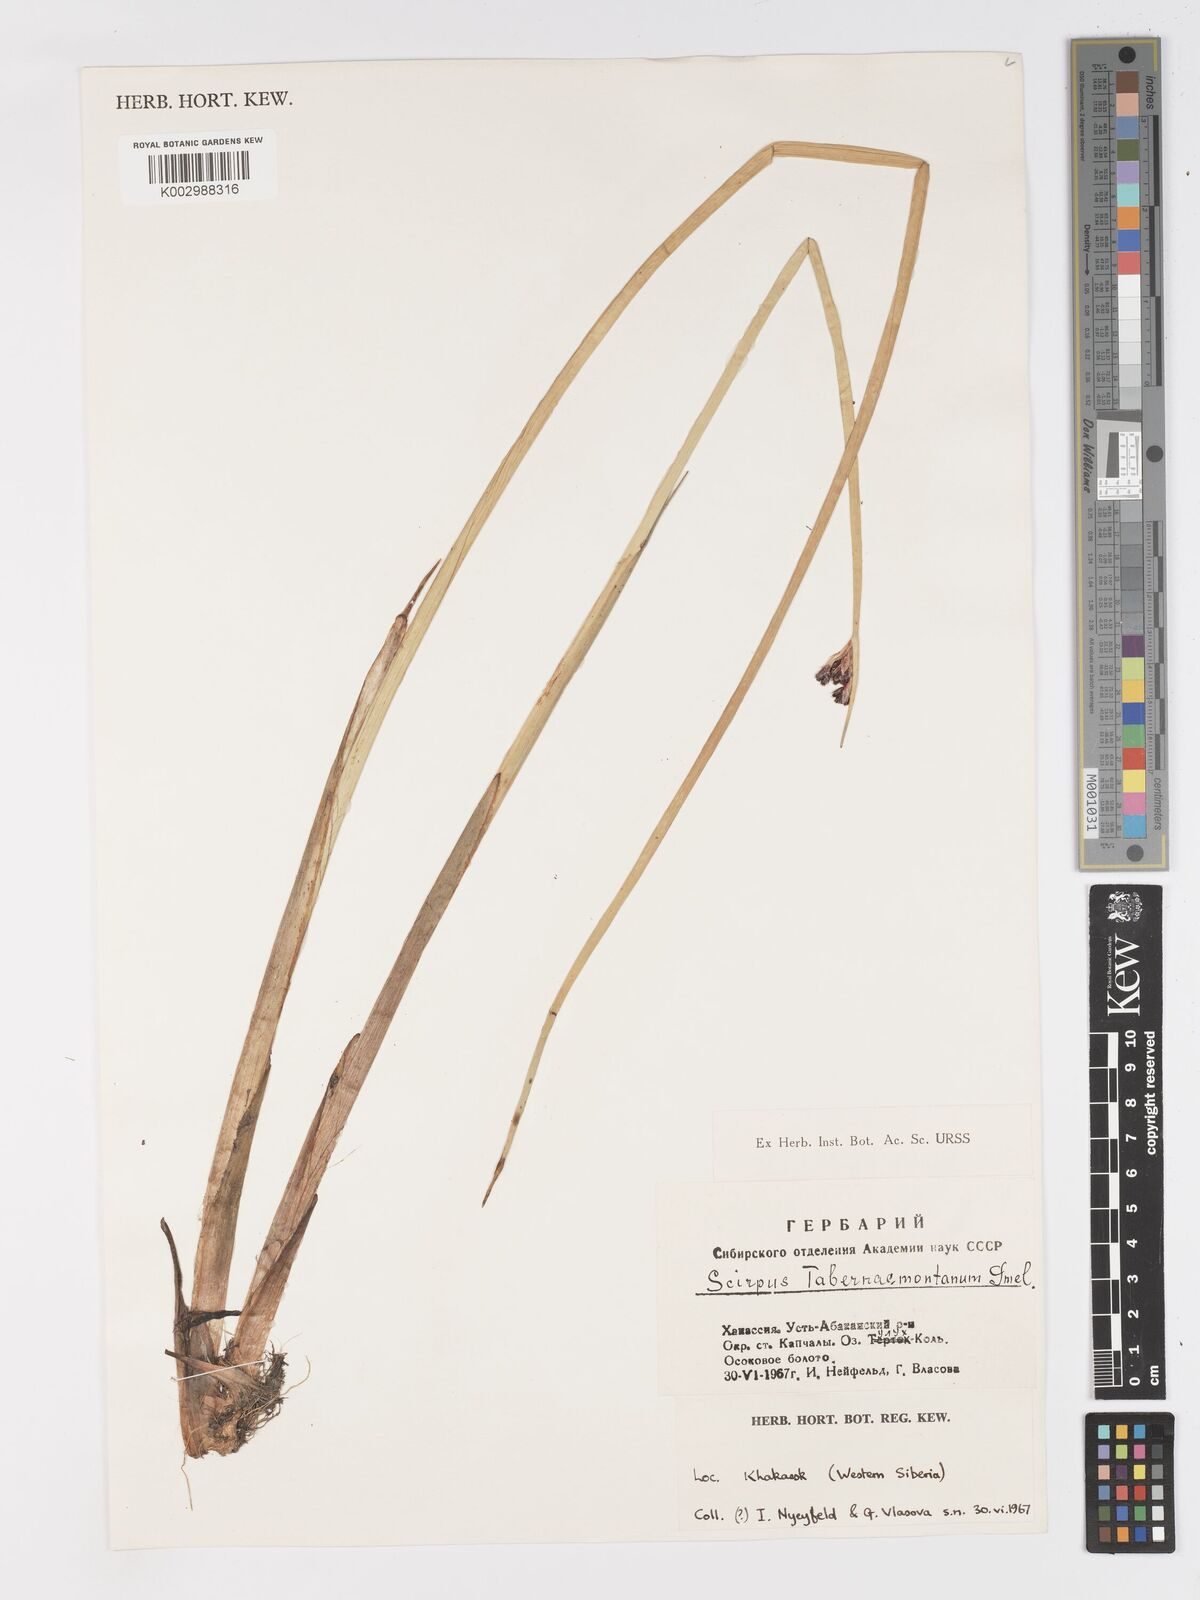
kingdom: Plantae
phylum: Tracheophyta
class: Liliopsida
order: Poales
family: Cyperaceae
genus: Schoenoplectus
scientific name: Schoenoplectus tabernaemontani
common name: Grey club-rush
